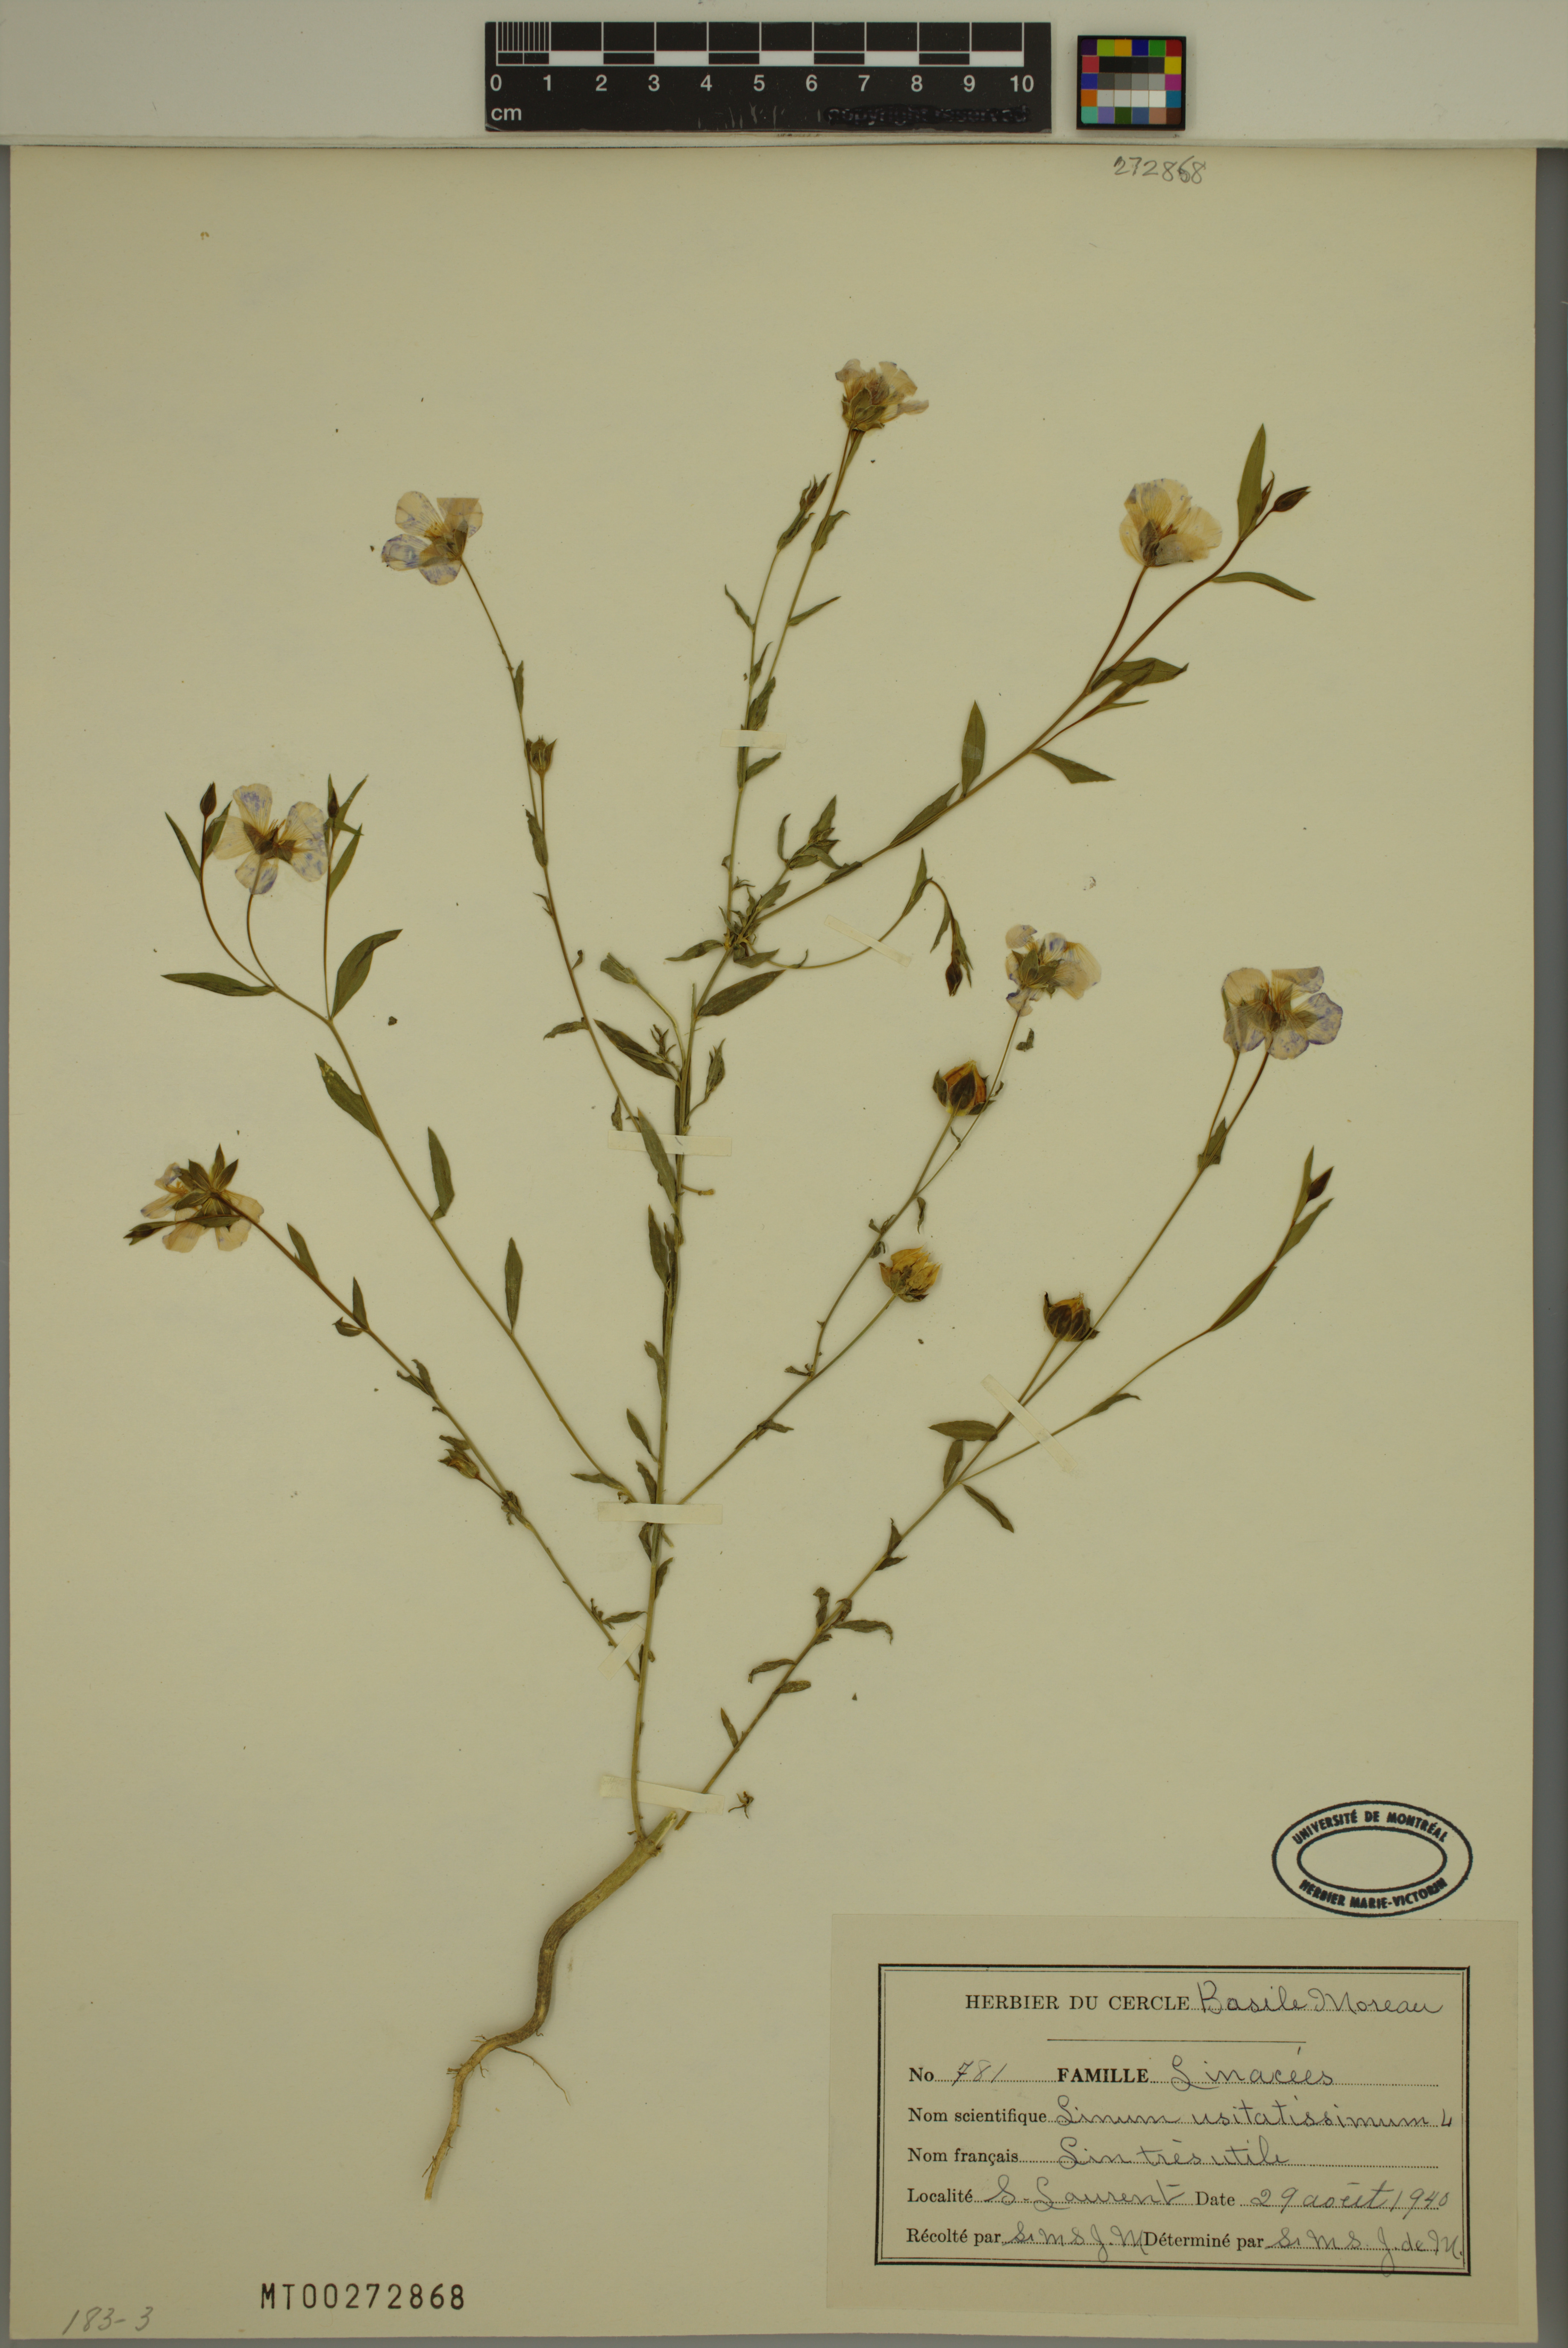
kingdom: Plantae
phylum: Tracheophyta
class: Magnoliopsida
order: Malpighiales
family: Linaceae
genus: Linum
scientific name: Linum usitatissimum
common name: Flax
